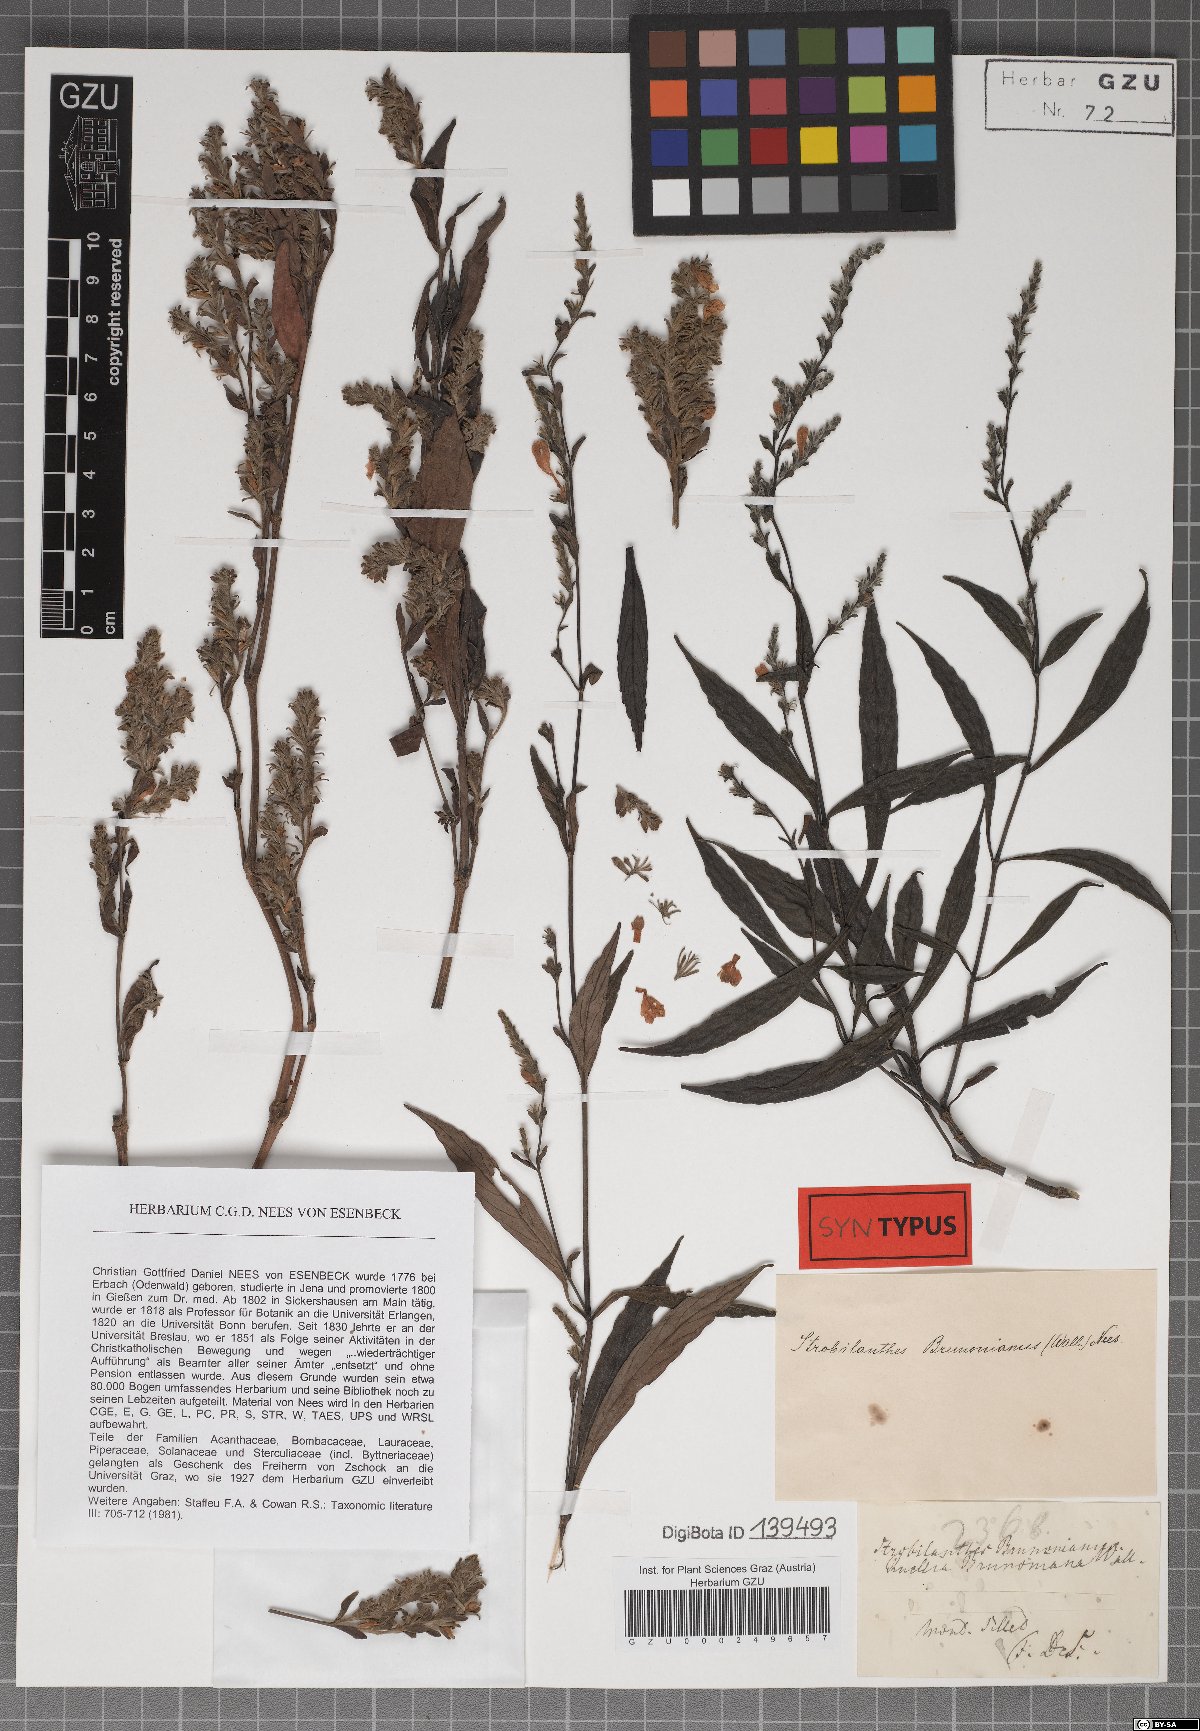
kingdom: Plantae
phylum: Tracheophyta
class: Magnoliopsida
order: Lamiales
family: Acanthaceae
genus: Strobilanthes
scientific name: Strobilanthes brunoniana
